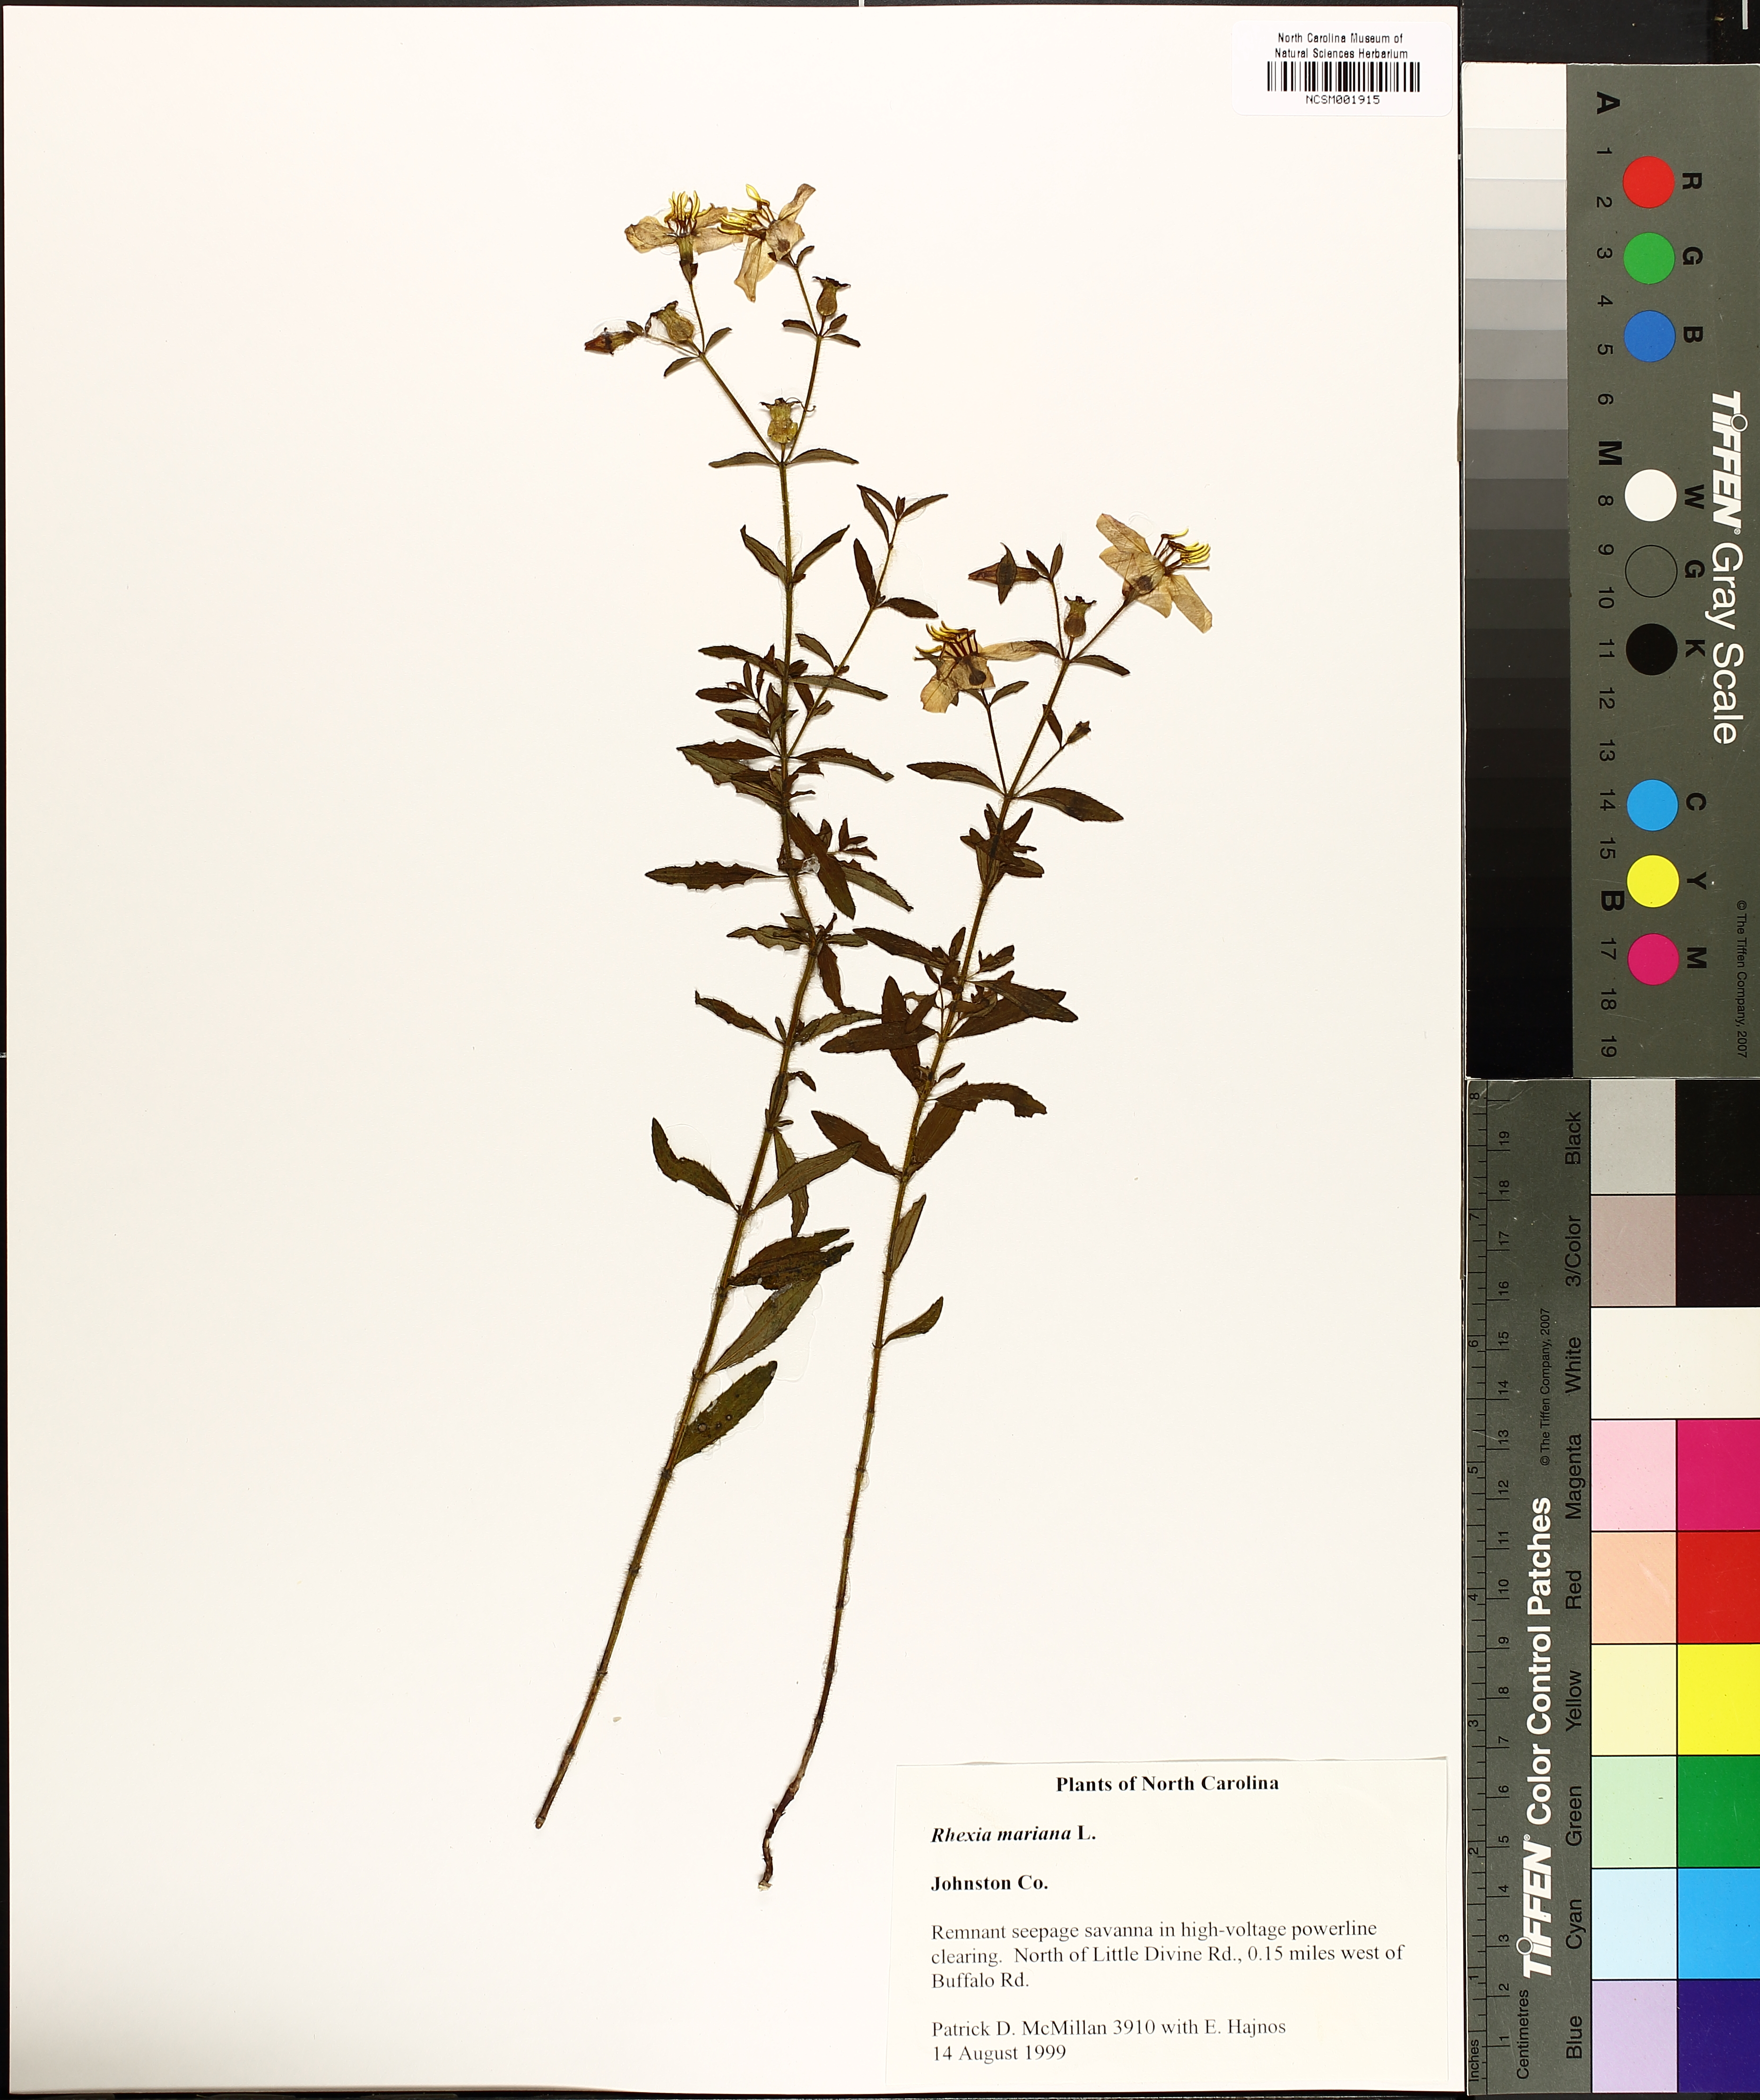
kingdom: Plantae
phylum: Tracheophyta
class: Magnoliopsida
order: Myrtales
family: Melastomataceae
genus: Rhexia
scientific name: Rhexia mariana
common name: Dull meadow-pitcher
